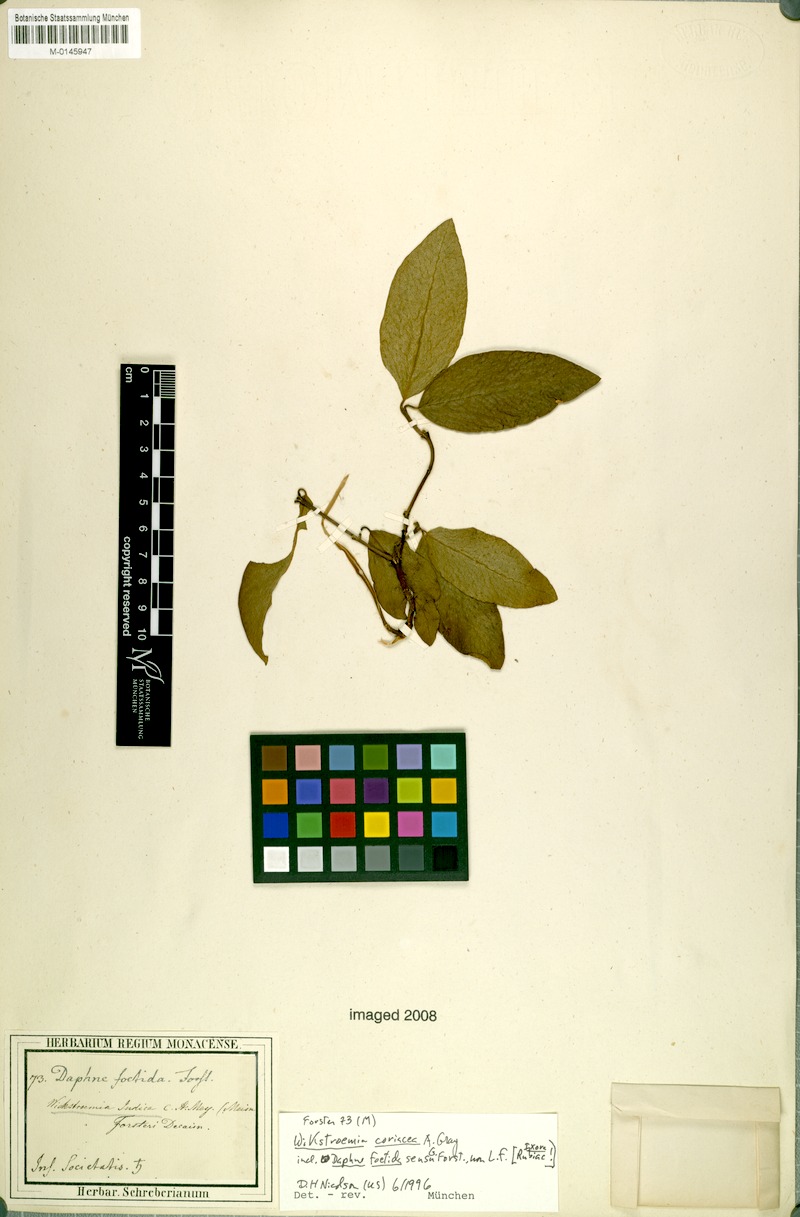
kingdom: Plantae
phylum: Tracheophyta
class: Magnoliopsida
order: Malvales
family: Thymelaeaceae
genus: Wikstroemia
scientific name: Wikstroemia coriacea
